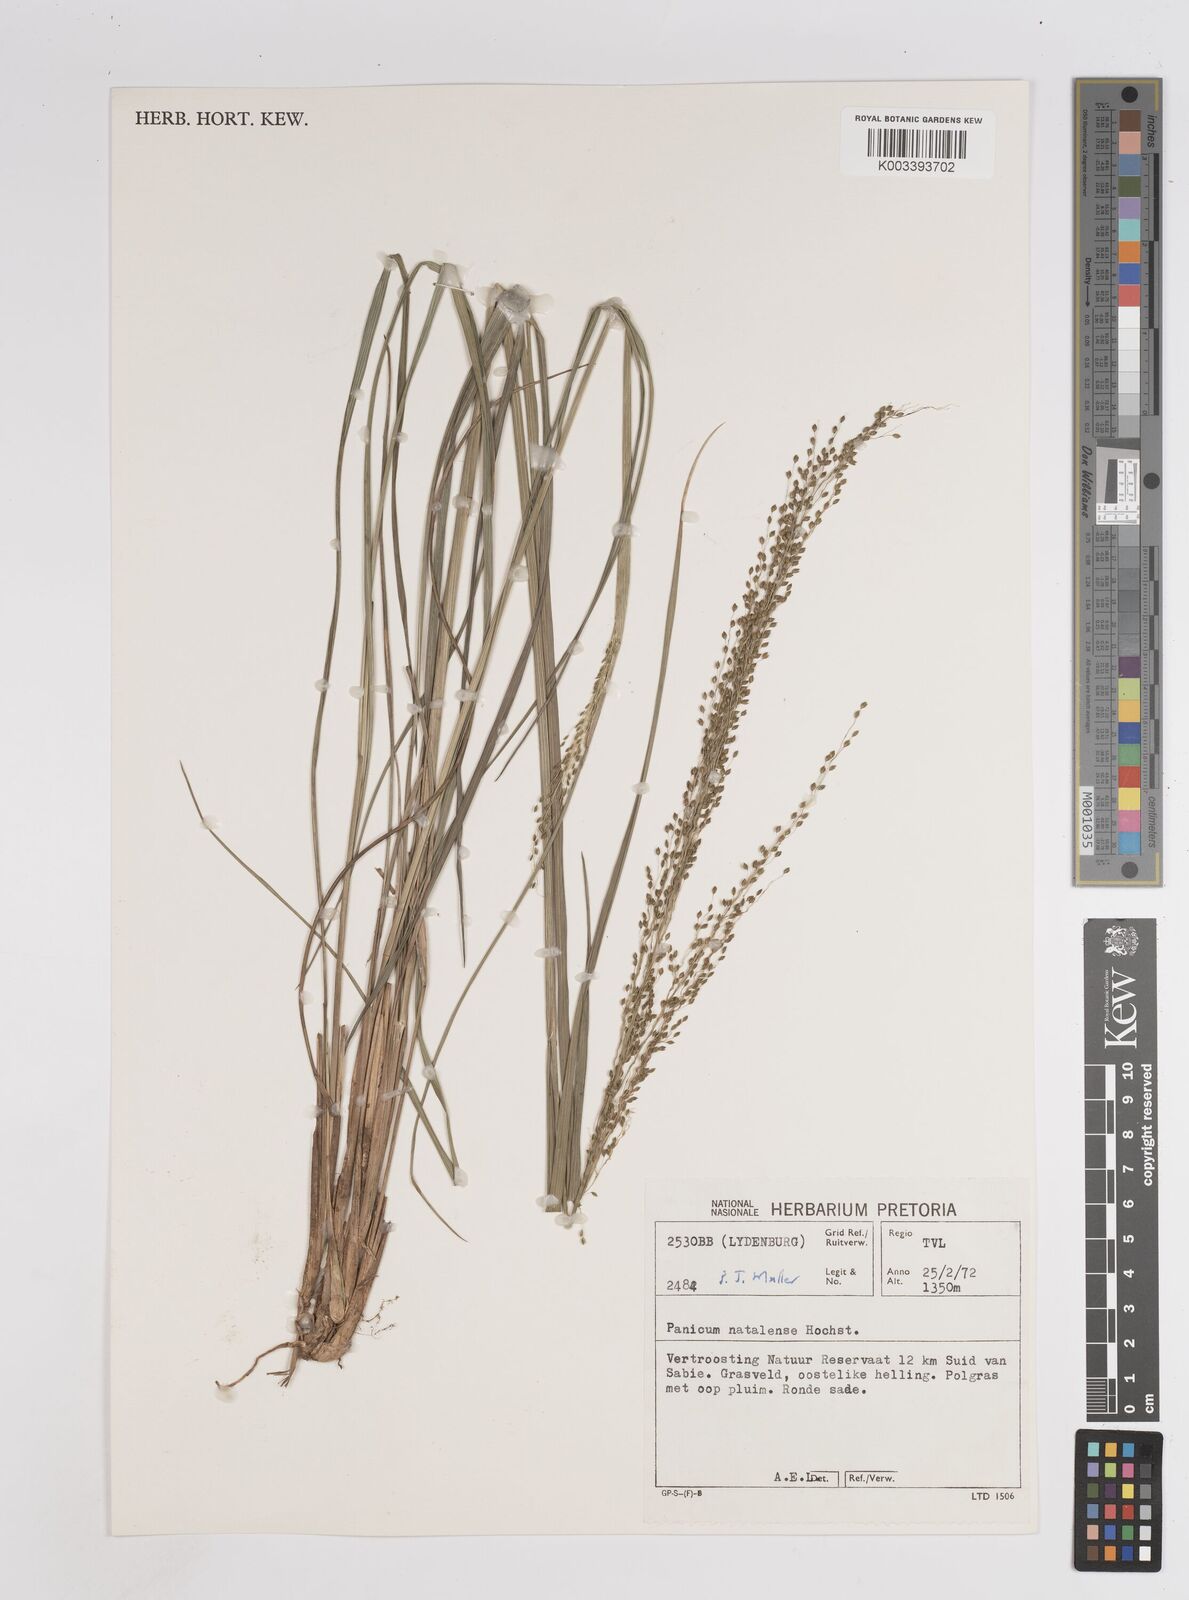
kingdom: Plantae
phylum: Tracheophyta
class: Liliopsida
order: Poales
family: Poaceae
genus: Trichanthecium
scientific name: Trichanthecium natalense
